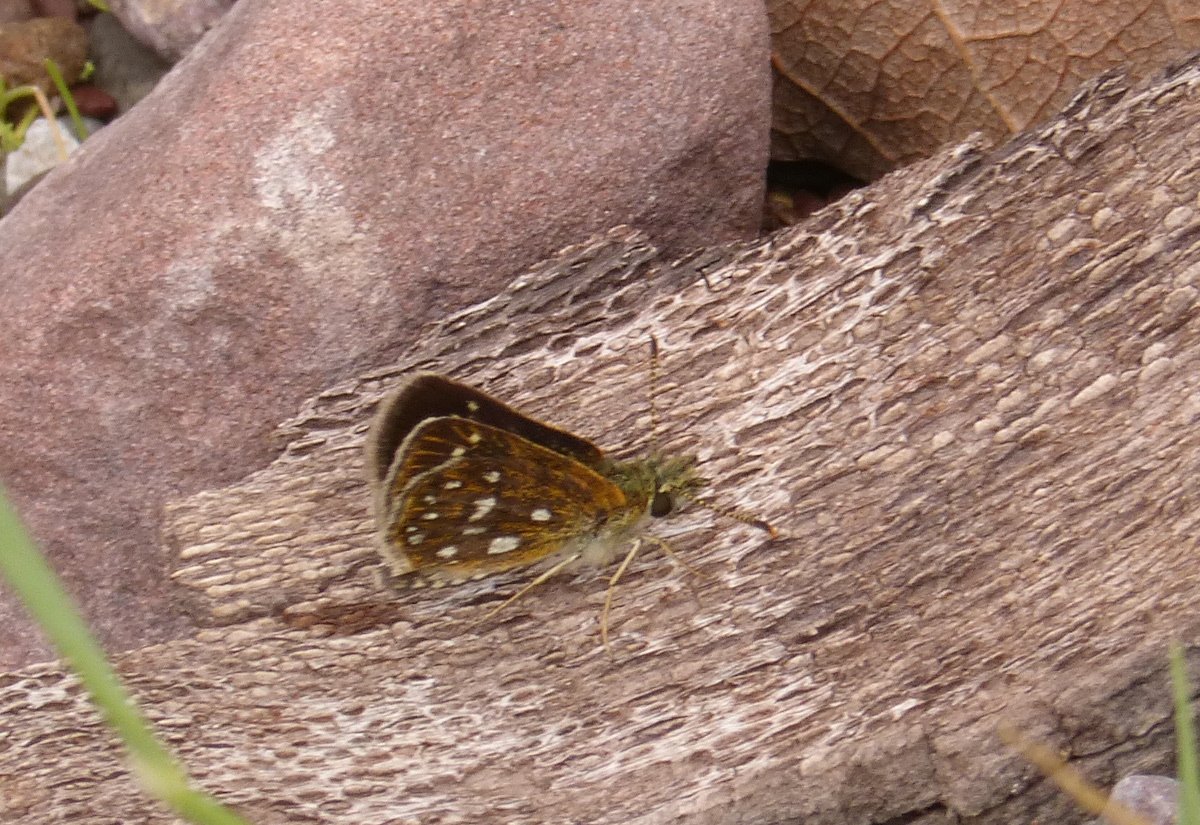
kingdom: Animalia
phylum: Arthropoda
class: Insecta
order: Lepidoptera
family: Hesperiidae
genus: Piruna
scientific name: Piruna aea
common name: Many-spotted Skipperling
